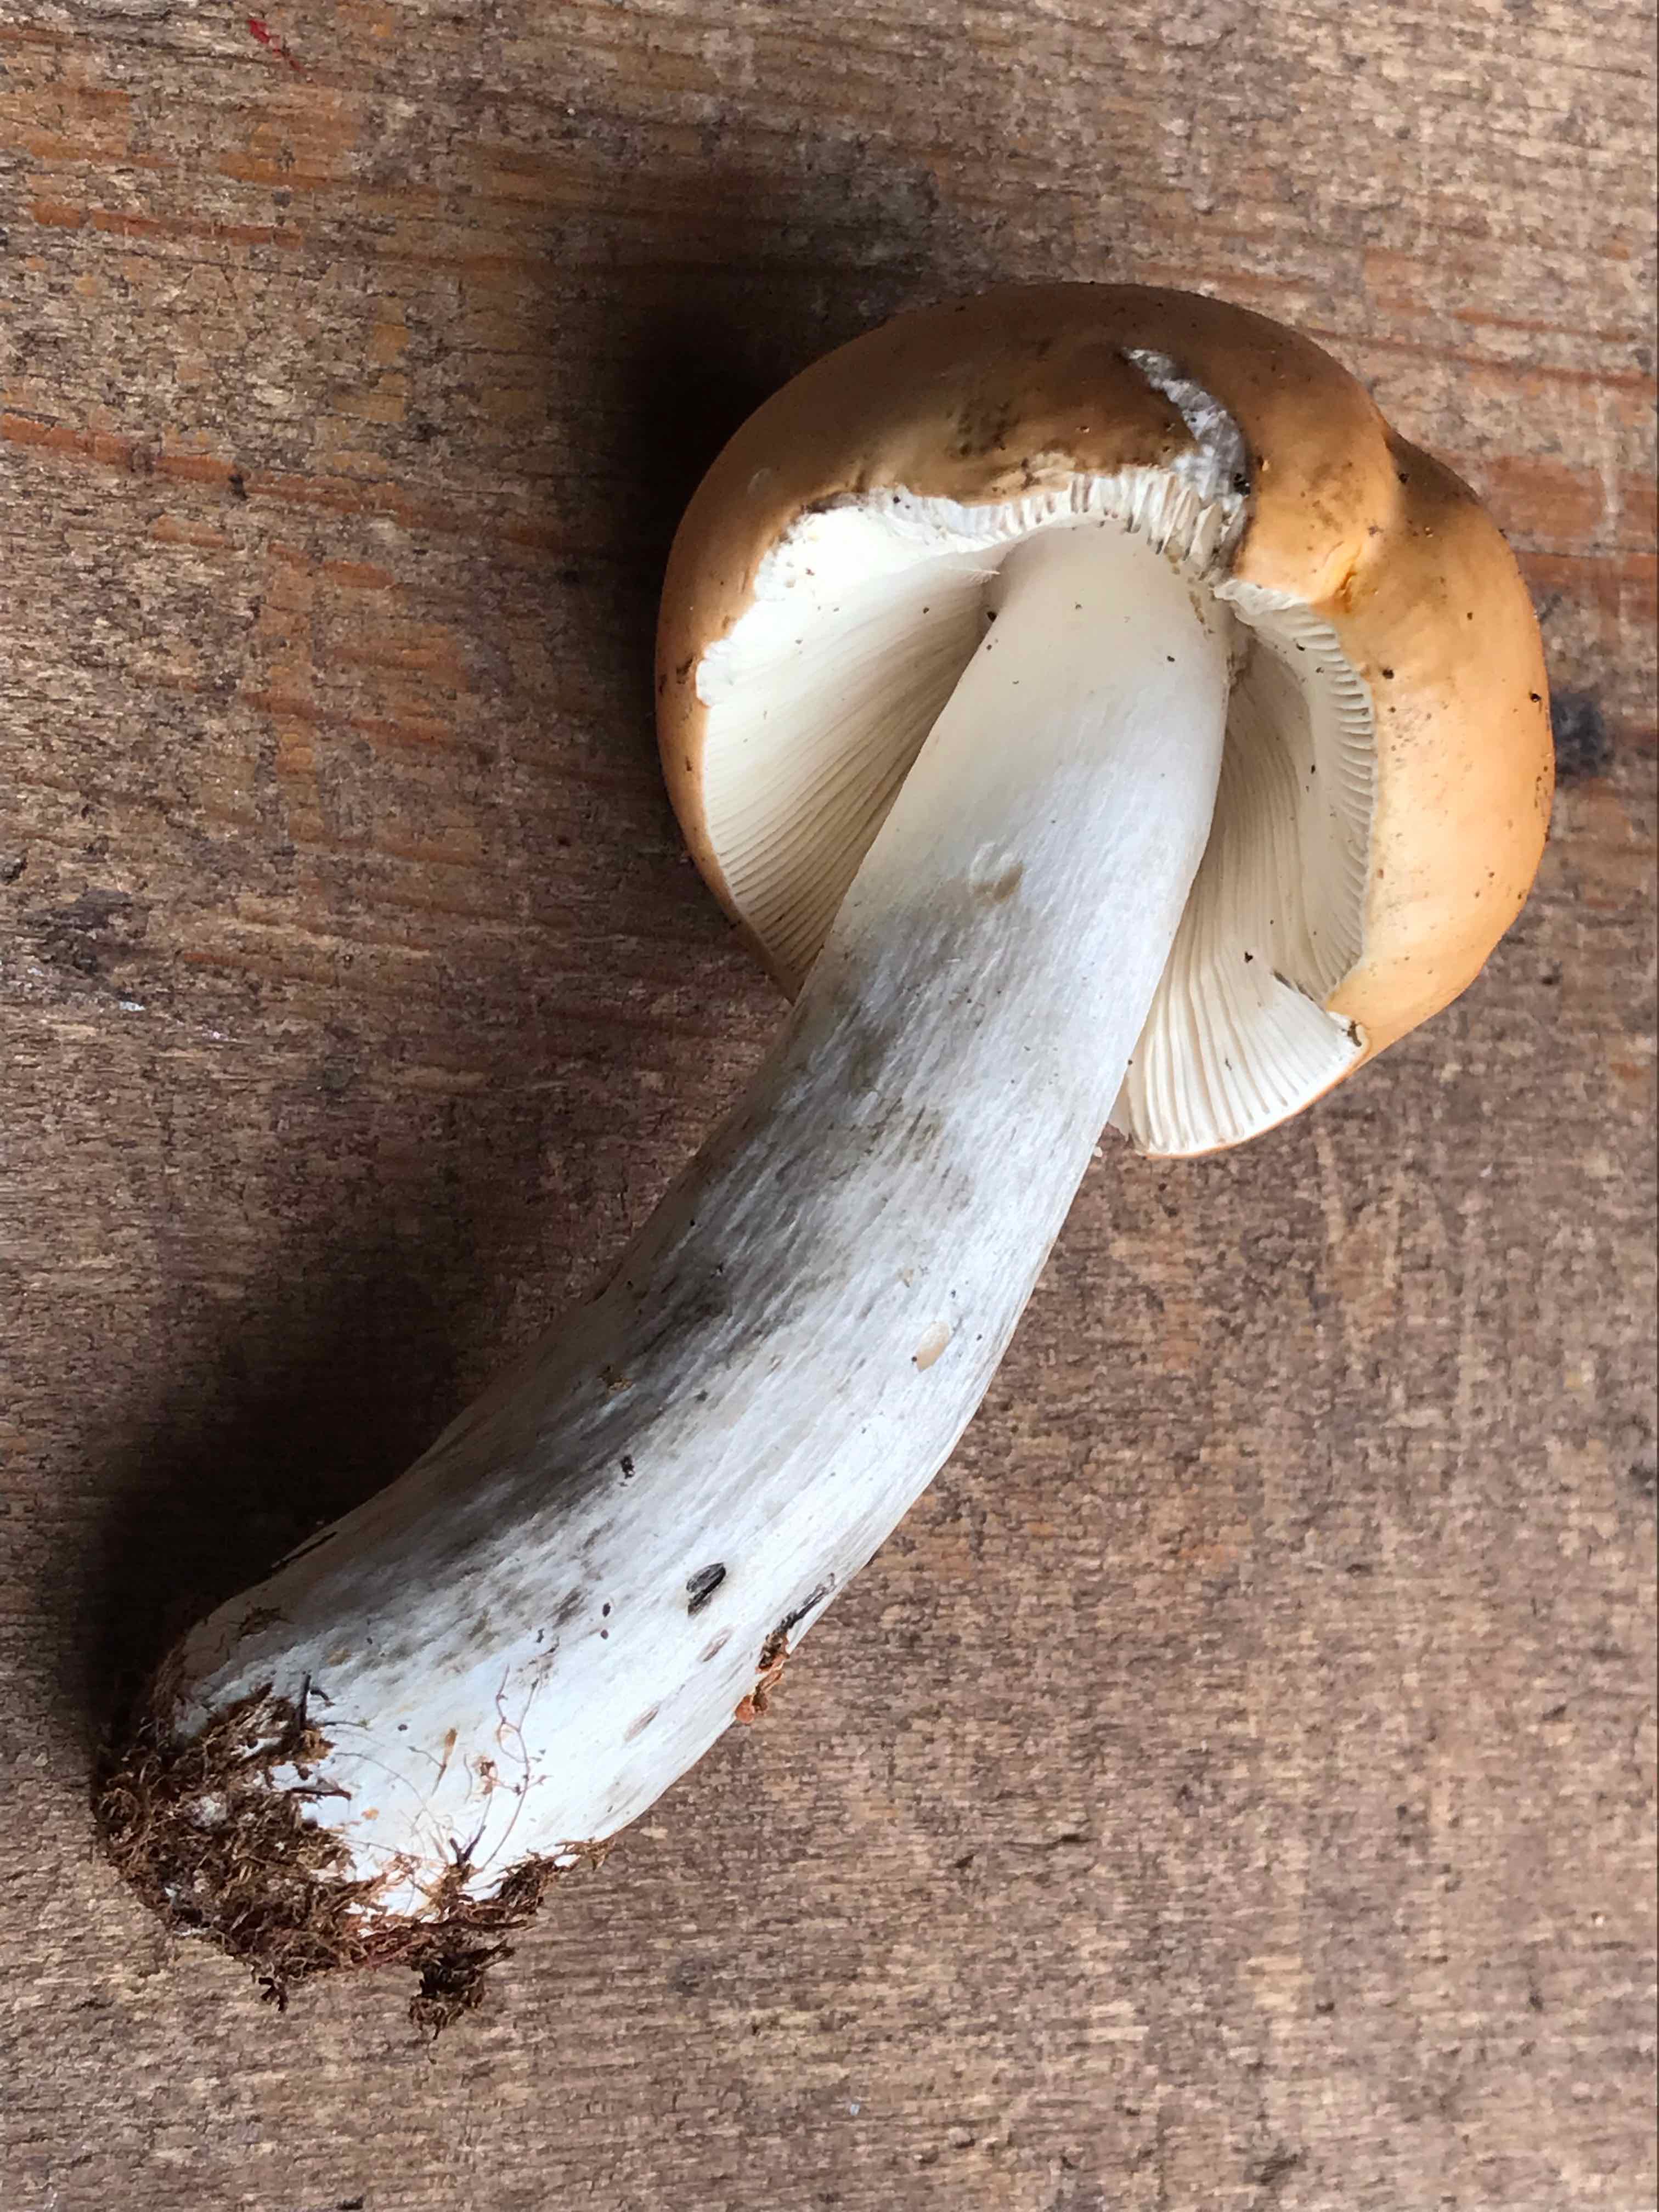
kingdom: Fungi
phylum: Basidiomycota
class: Agaricomycetes
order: Russulales
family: Russulaceae
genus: Russula
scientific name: Russula decolorans
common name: afblegende skørhat
